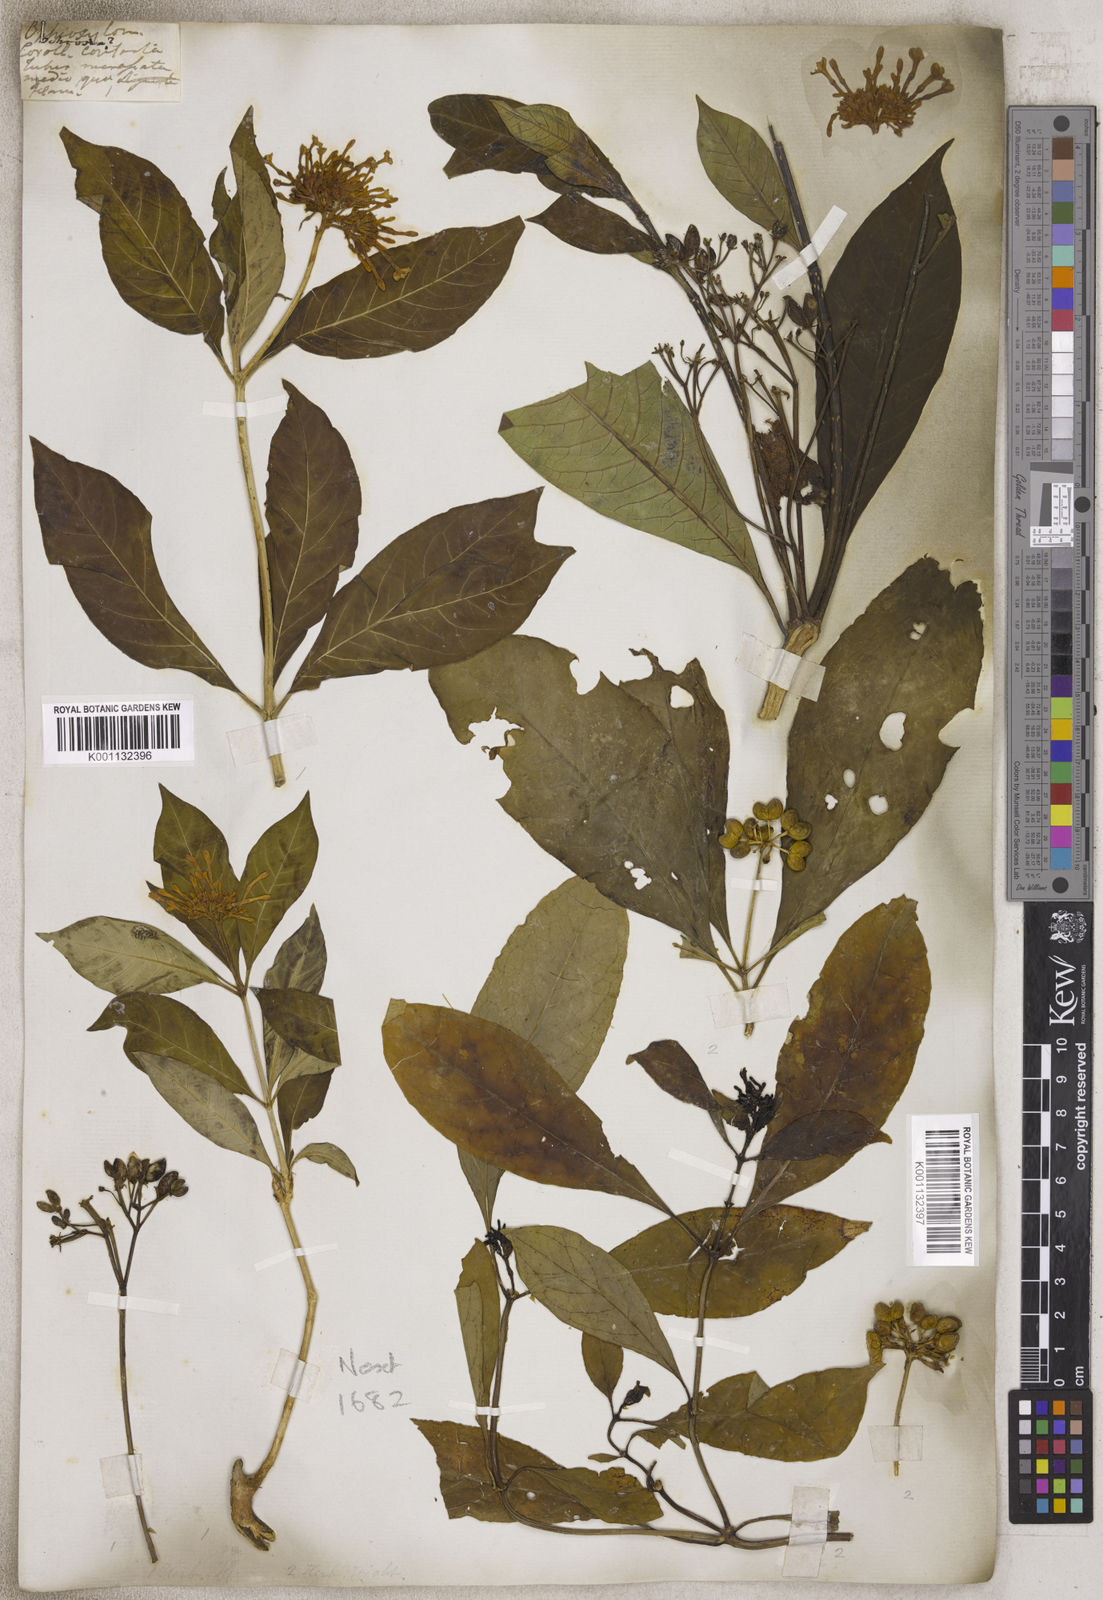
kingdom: Plantae
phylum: Tracheophyta
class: Magnoliopsida
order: Gentianales
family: Apocynaceae
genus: Rauvolfia
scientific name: Rauvolfia
